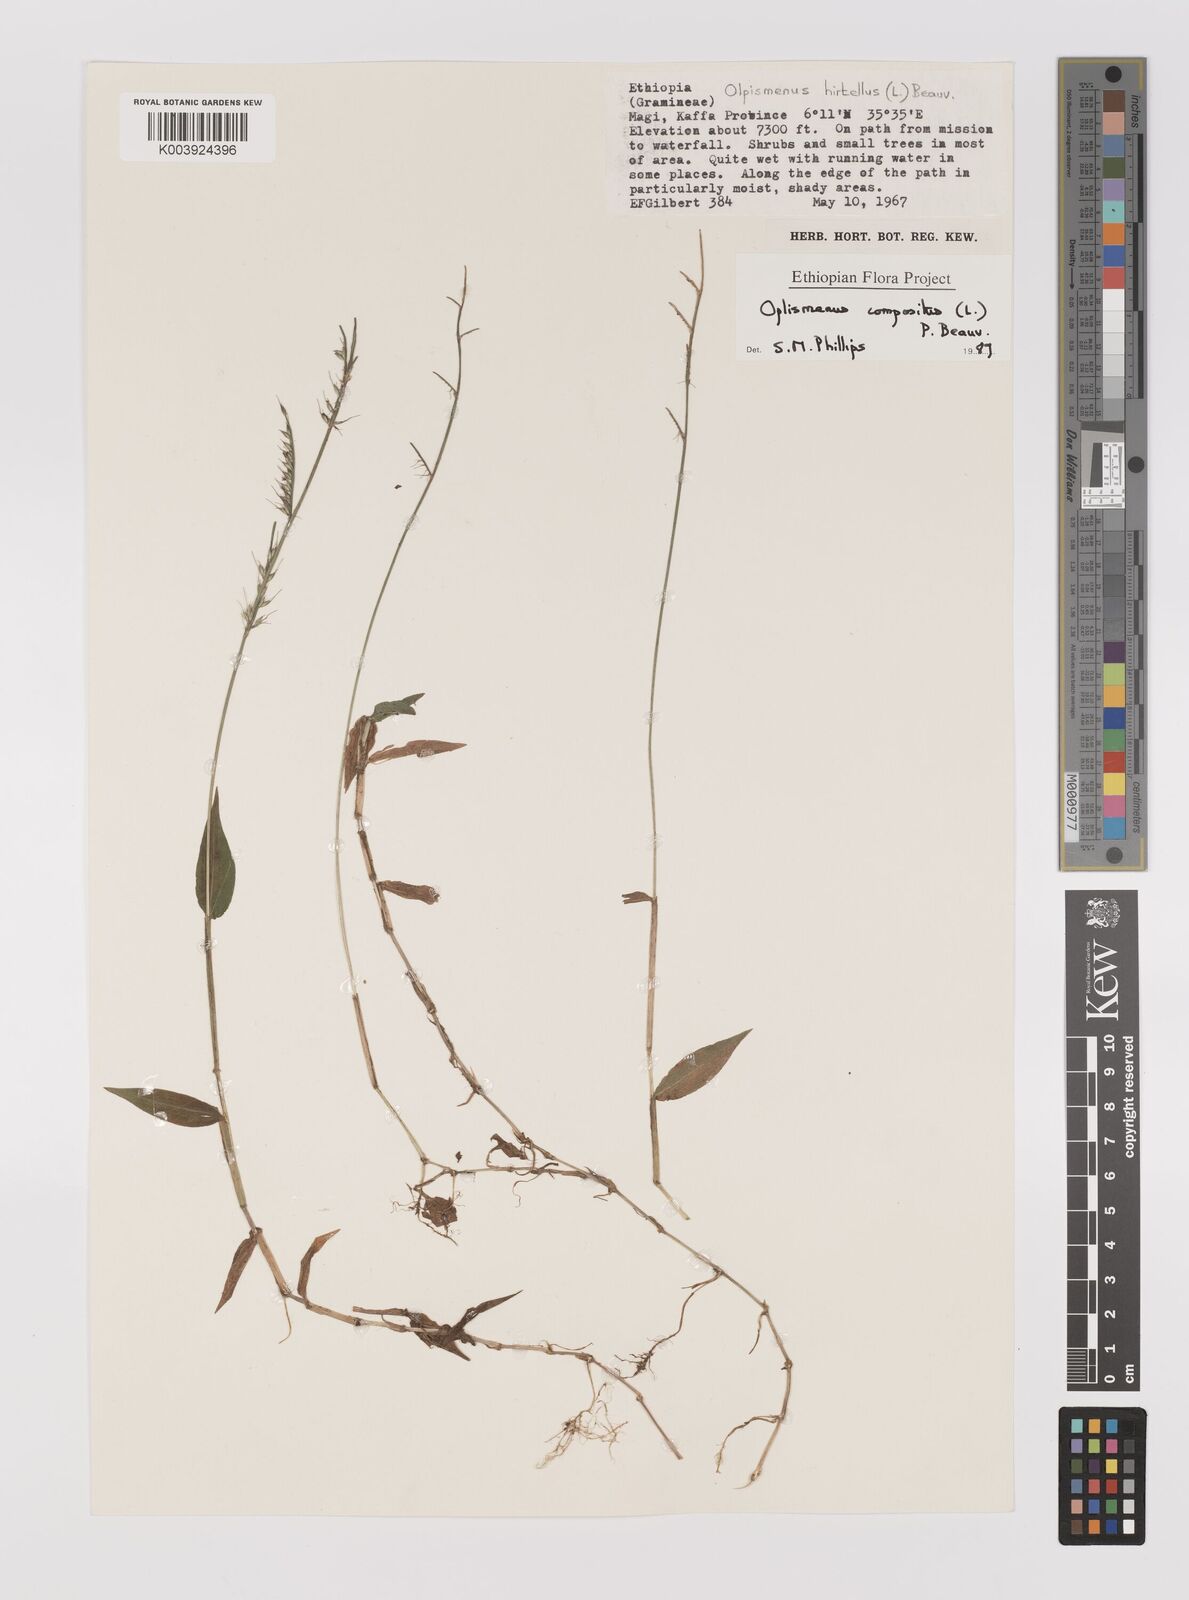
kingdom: Plantae
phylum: Tracheophyta
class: Liliopsida
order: Poales
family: Poaceae
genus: Oplismenus
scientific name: Oplismenus compositus
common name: Running mountain grass
